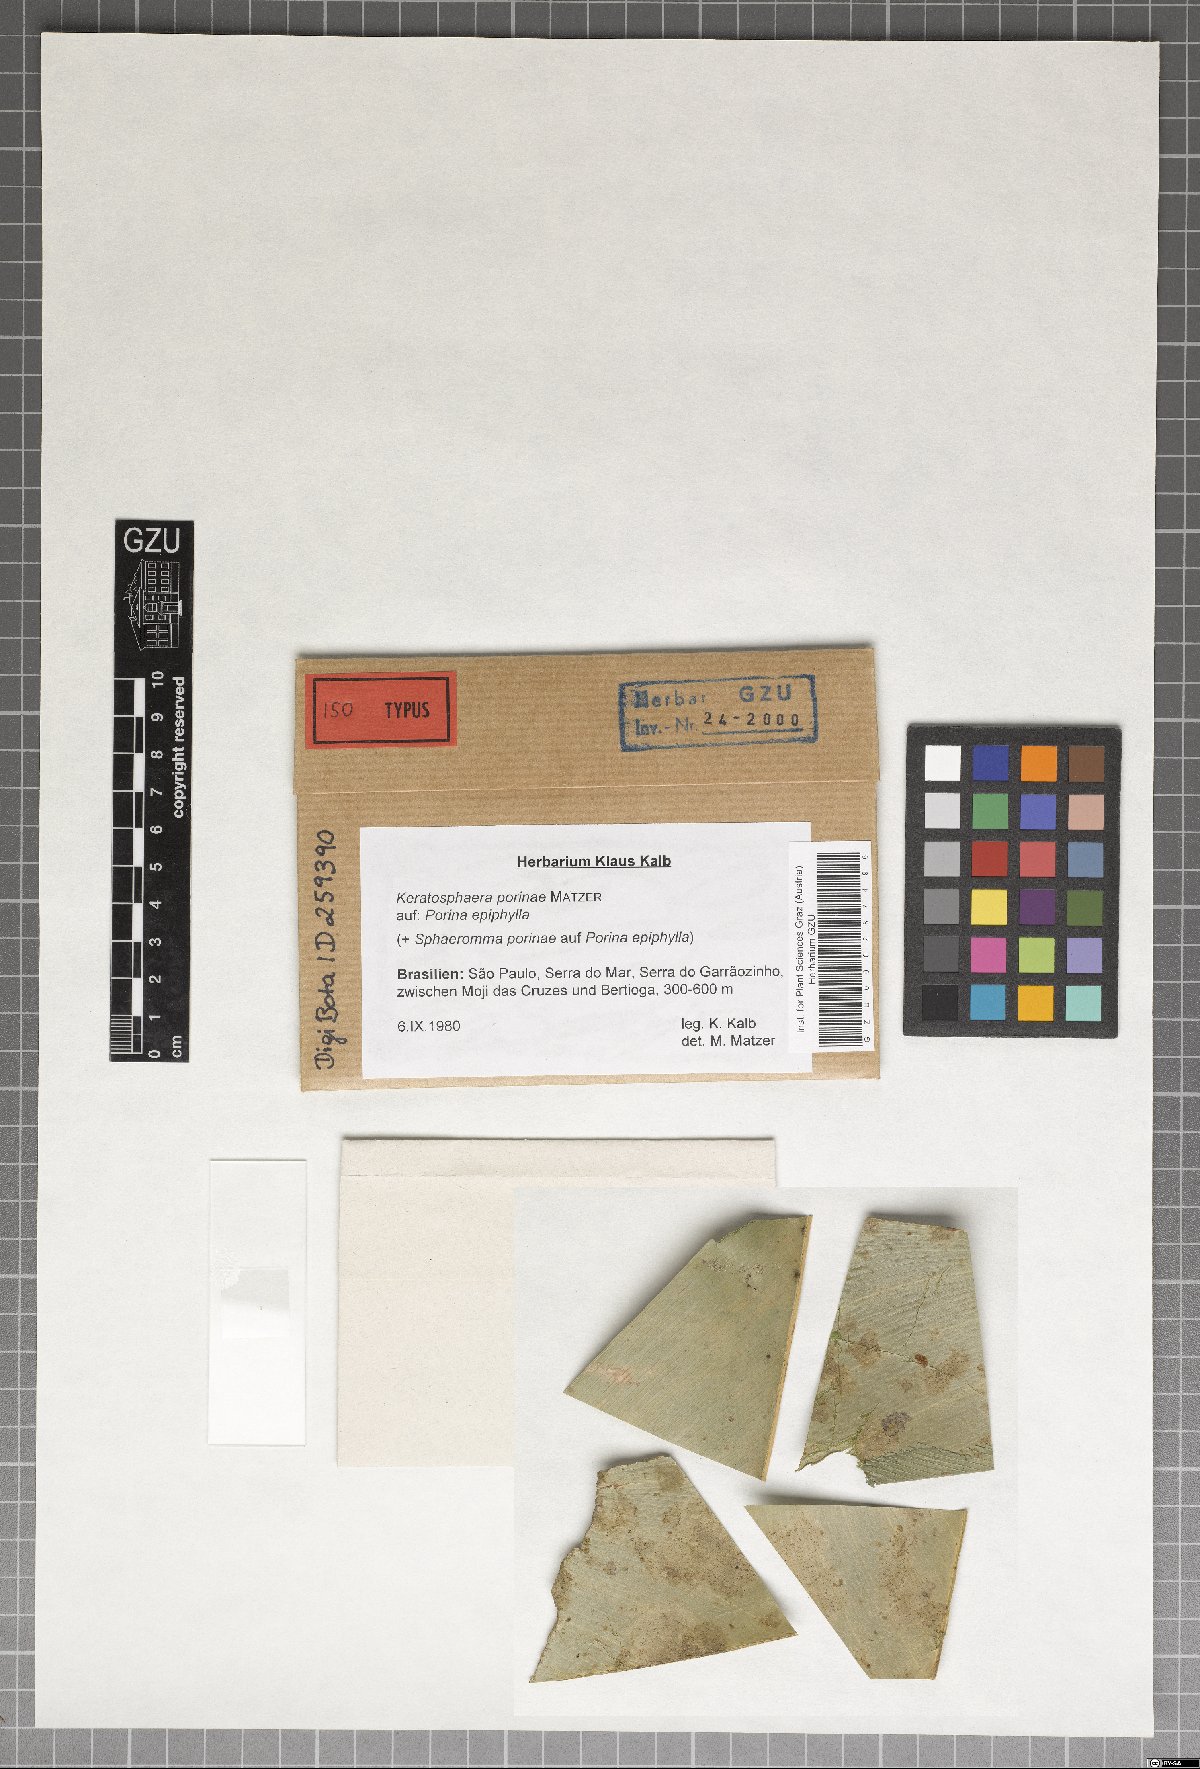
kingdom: Fungi
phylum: Ascomycota
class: Dothideomycetes
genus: Keratosphaera
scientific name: Keratosphaera porinae
